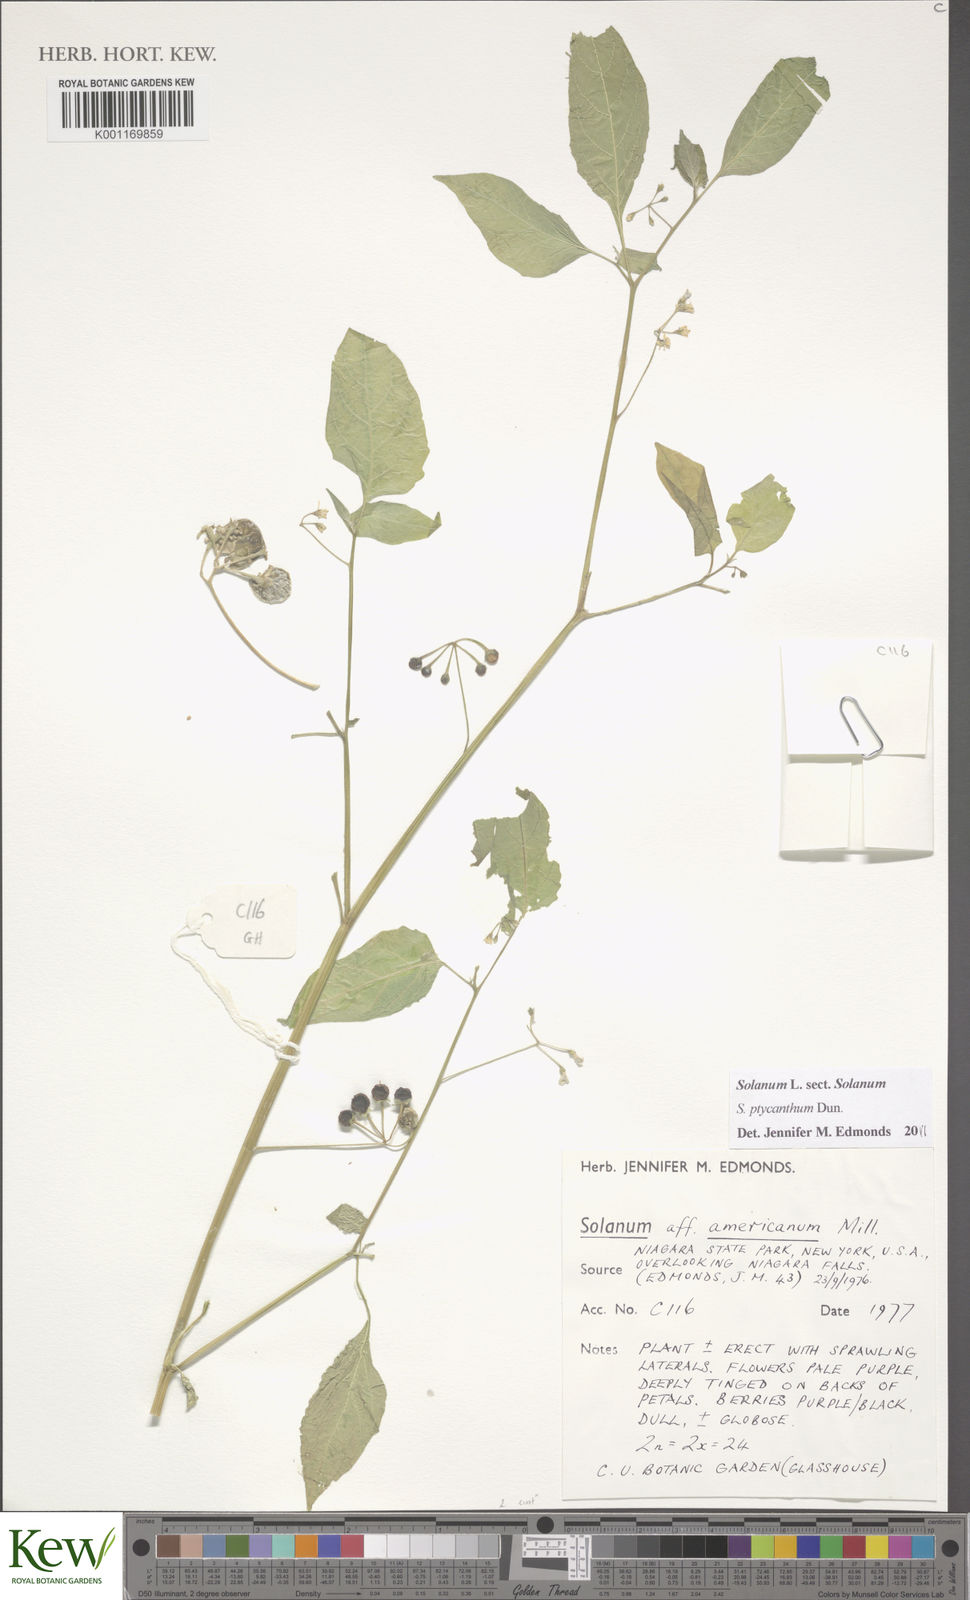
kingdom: Plantae
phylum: Tracheophyta
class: Magnoliopsida
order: Solanales
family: Solanaceae
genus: Solanum
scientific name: Solanum americanum
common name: American black nightshade
